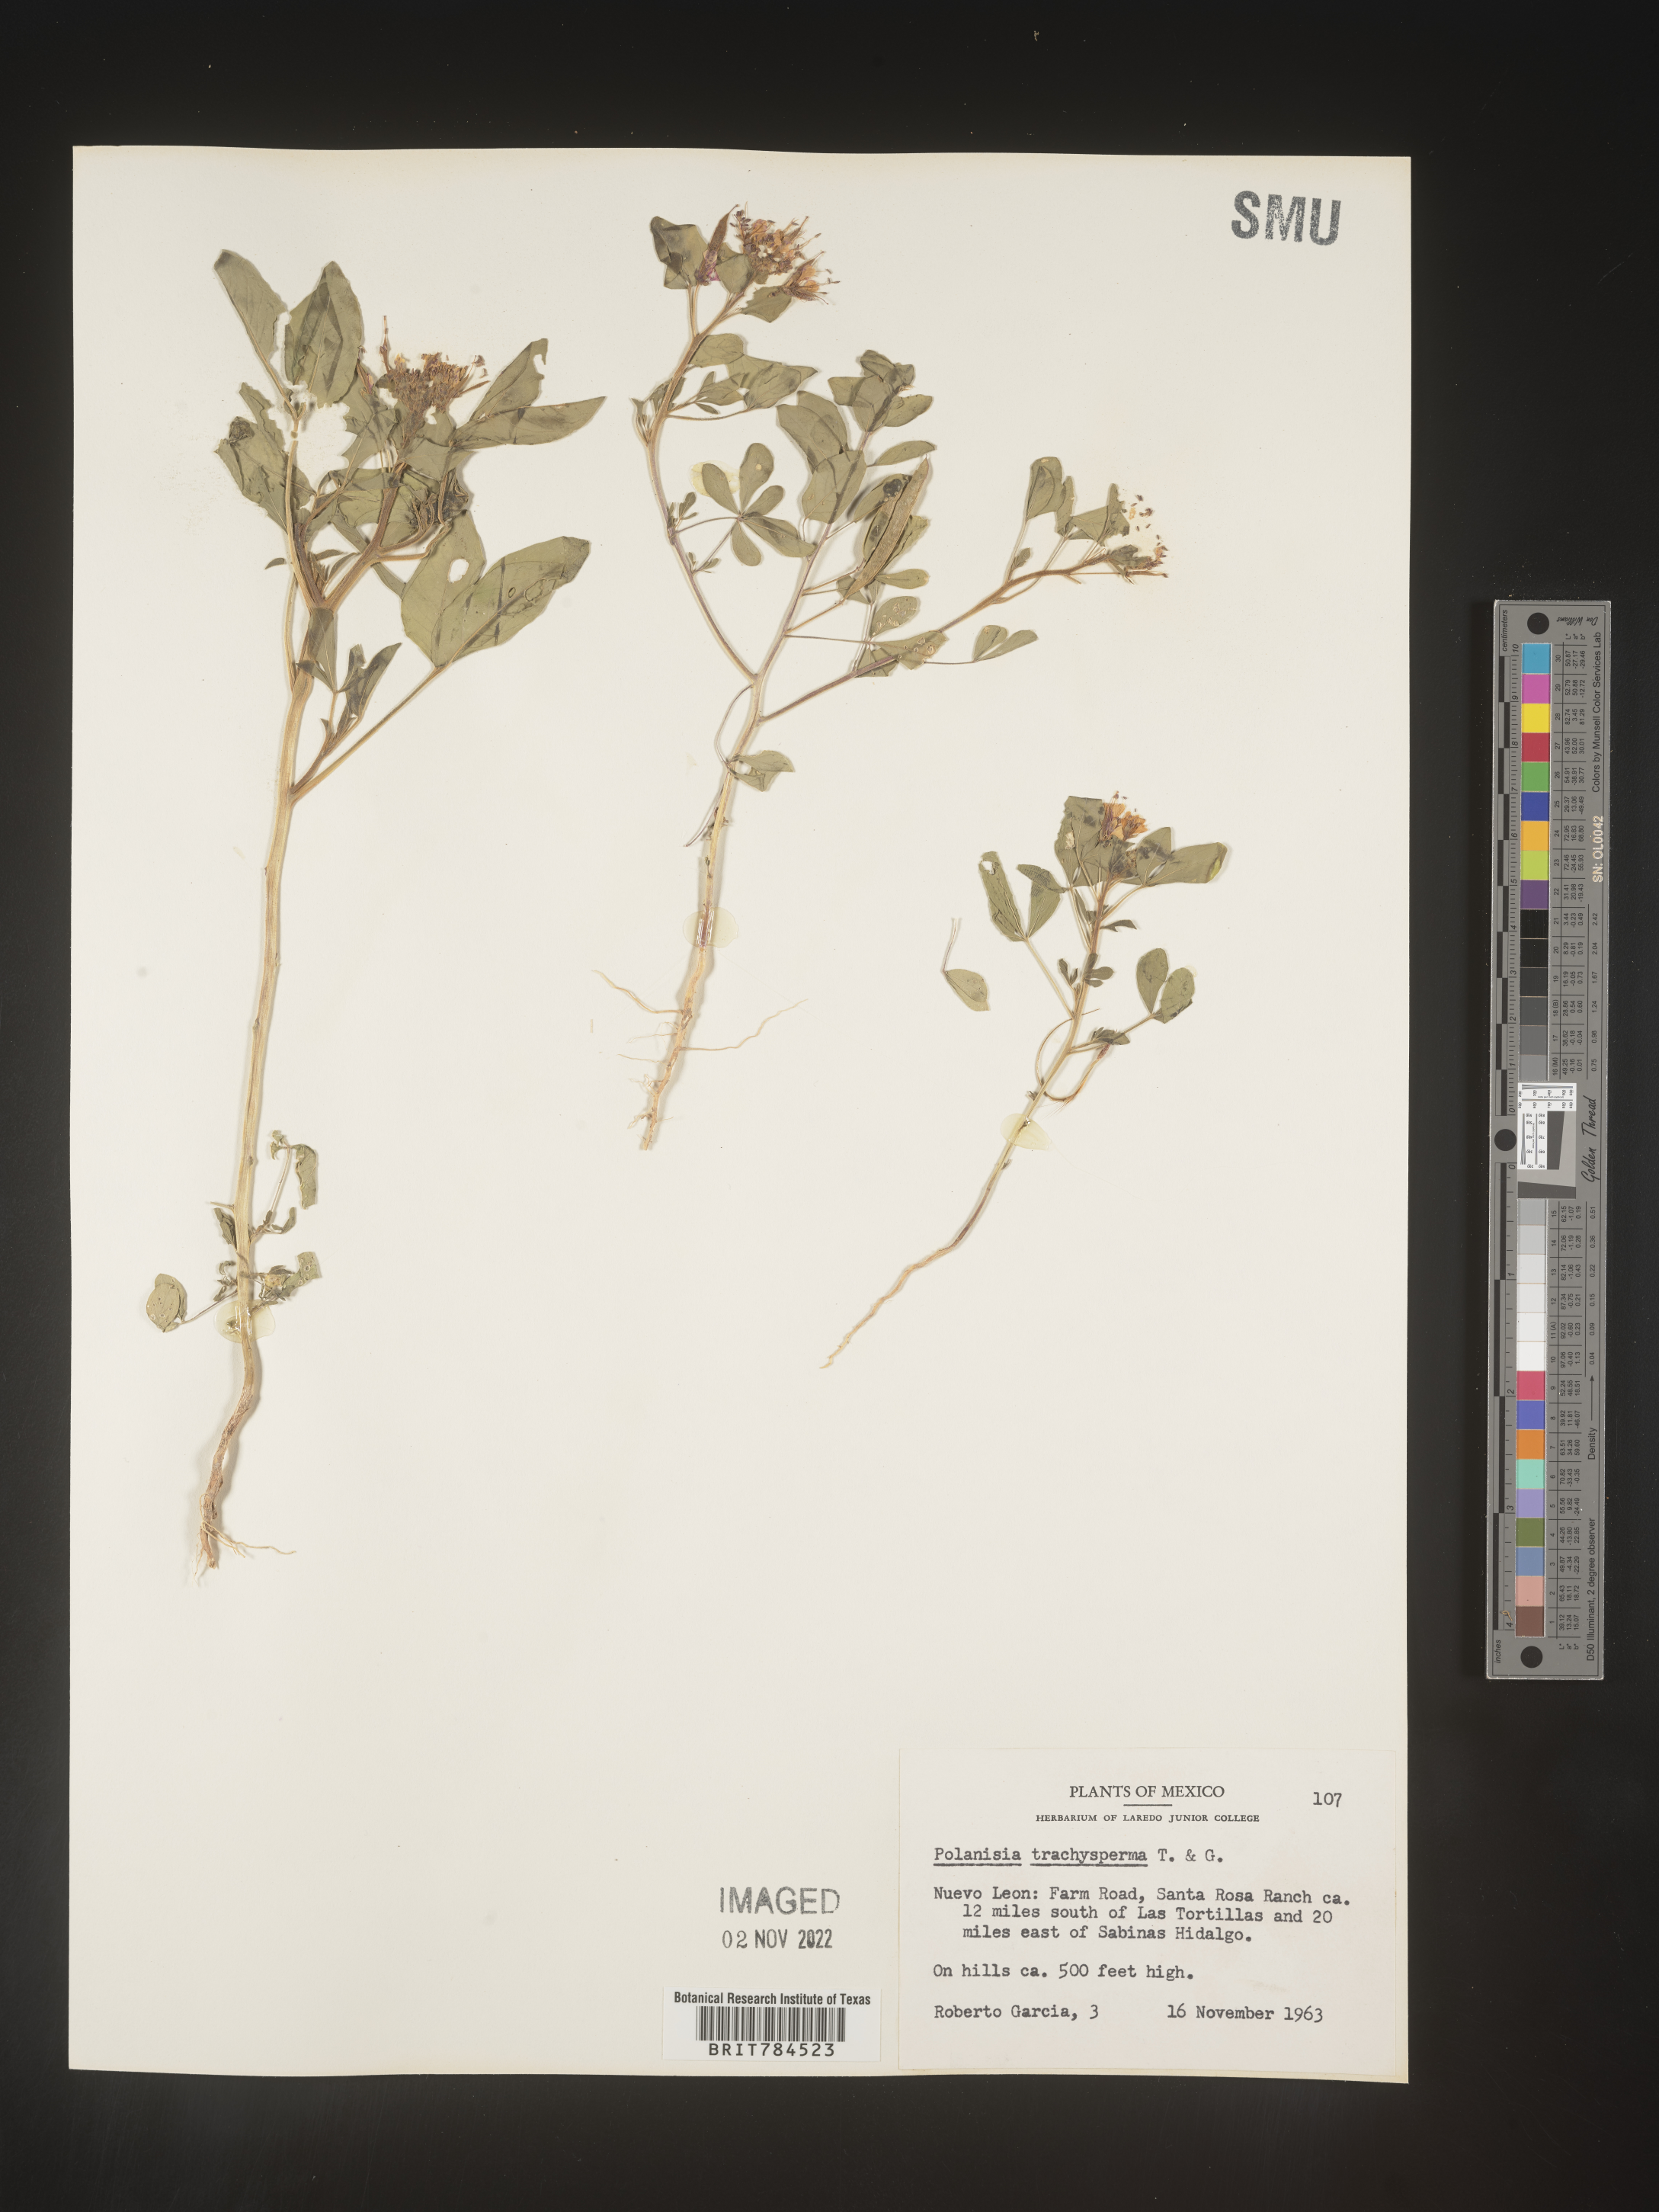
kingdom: Plantae
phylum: Tracheophyta
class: Magnoliopsida
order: Brassicales
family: Cleomaceae
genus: Polanisia
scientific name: Polanisia
